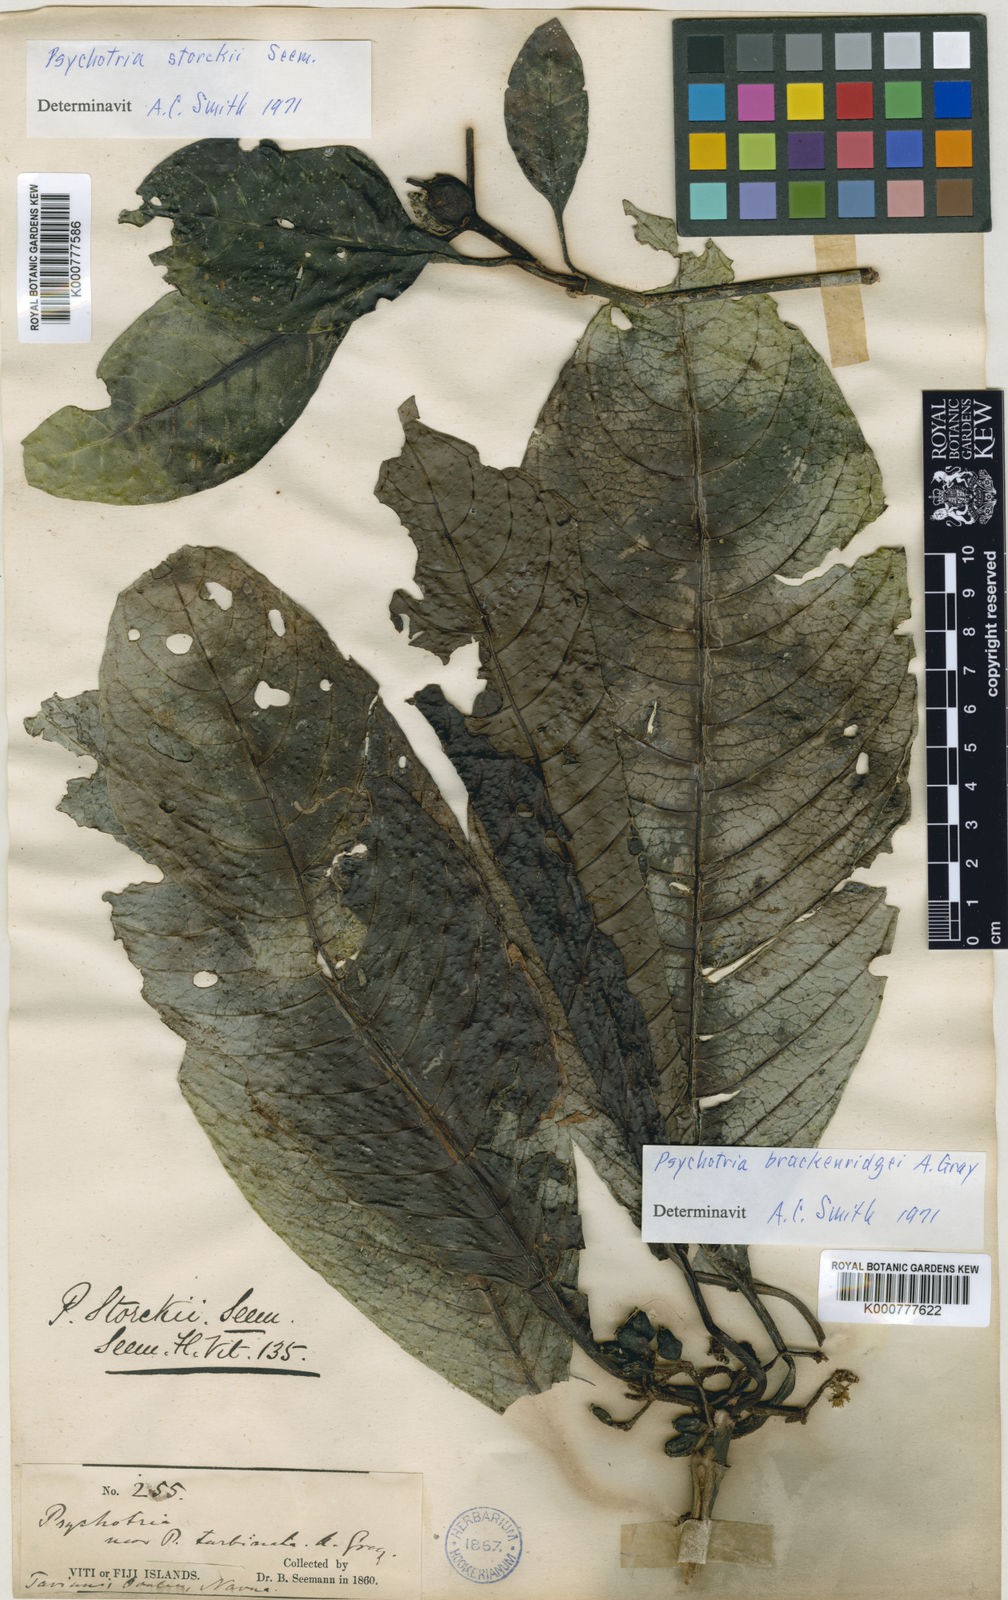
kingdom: Plantae
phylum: Tracheophyta
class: Magnoliopsida
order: Gentianales
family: Rubiaceae
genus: Psychotria
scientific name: Psychotria storckii
